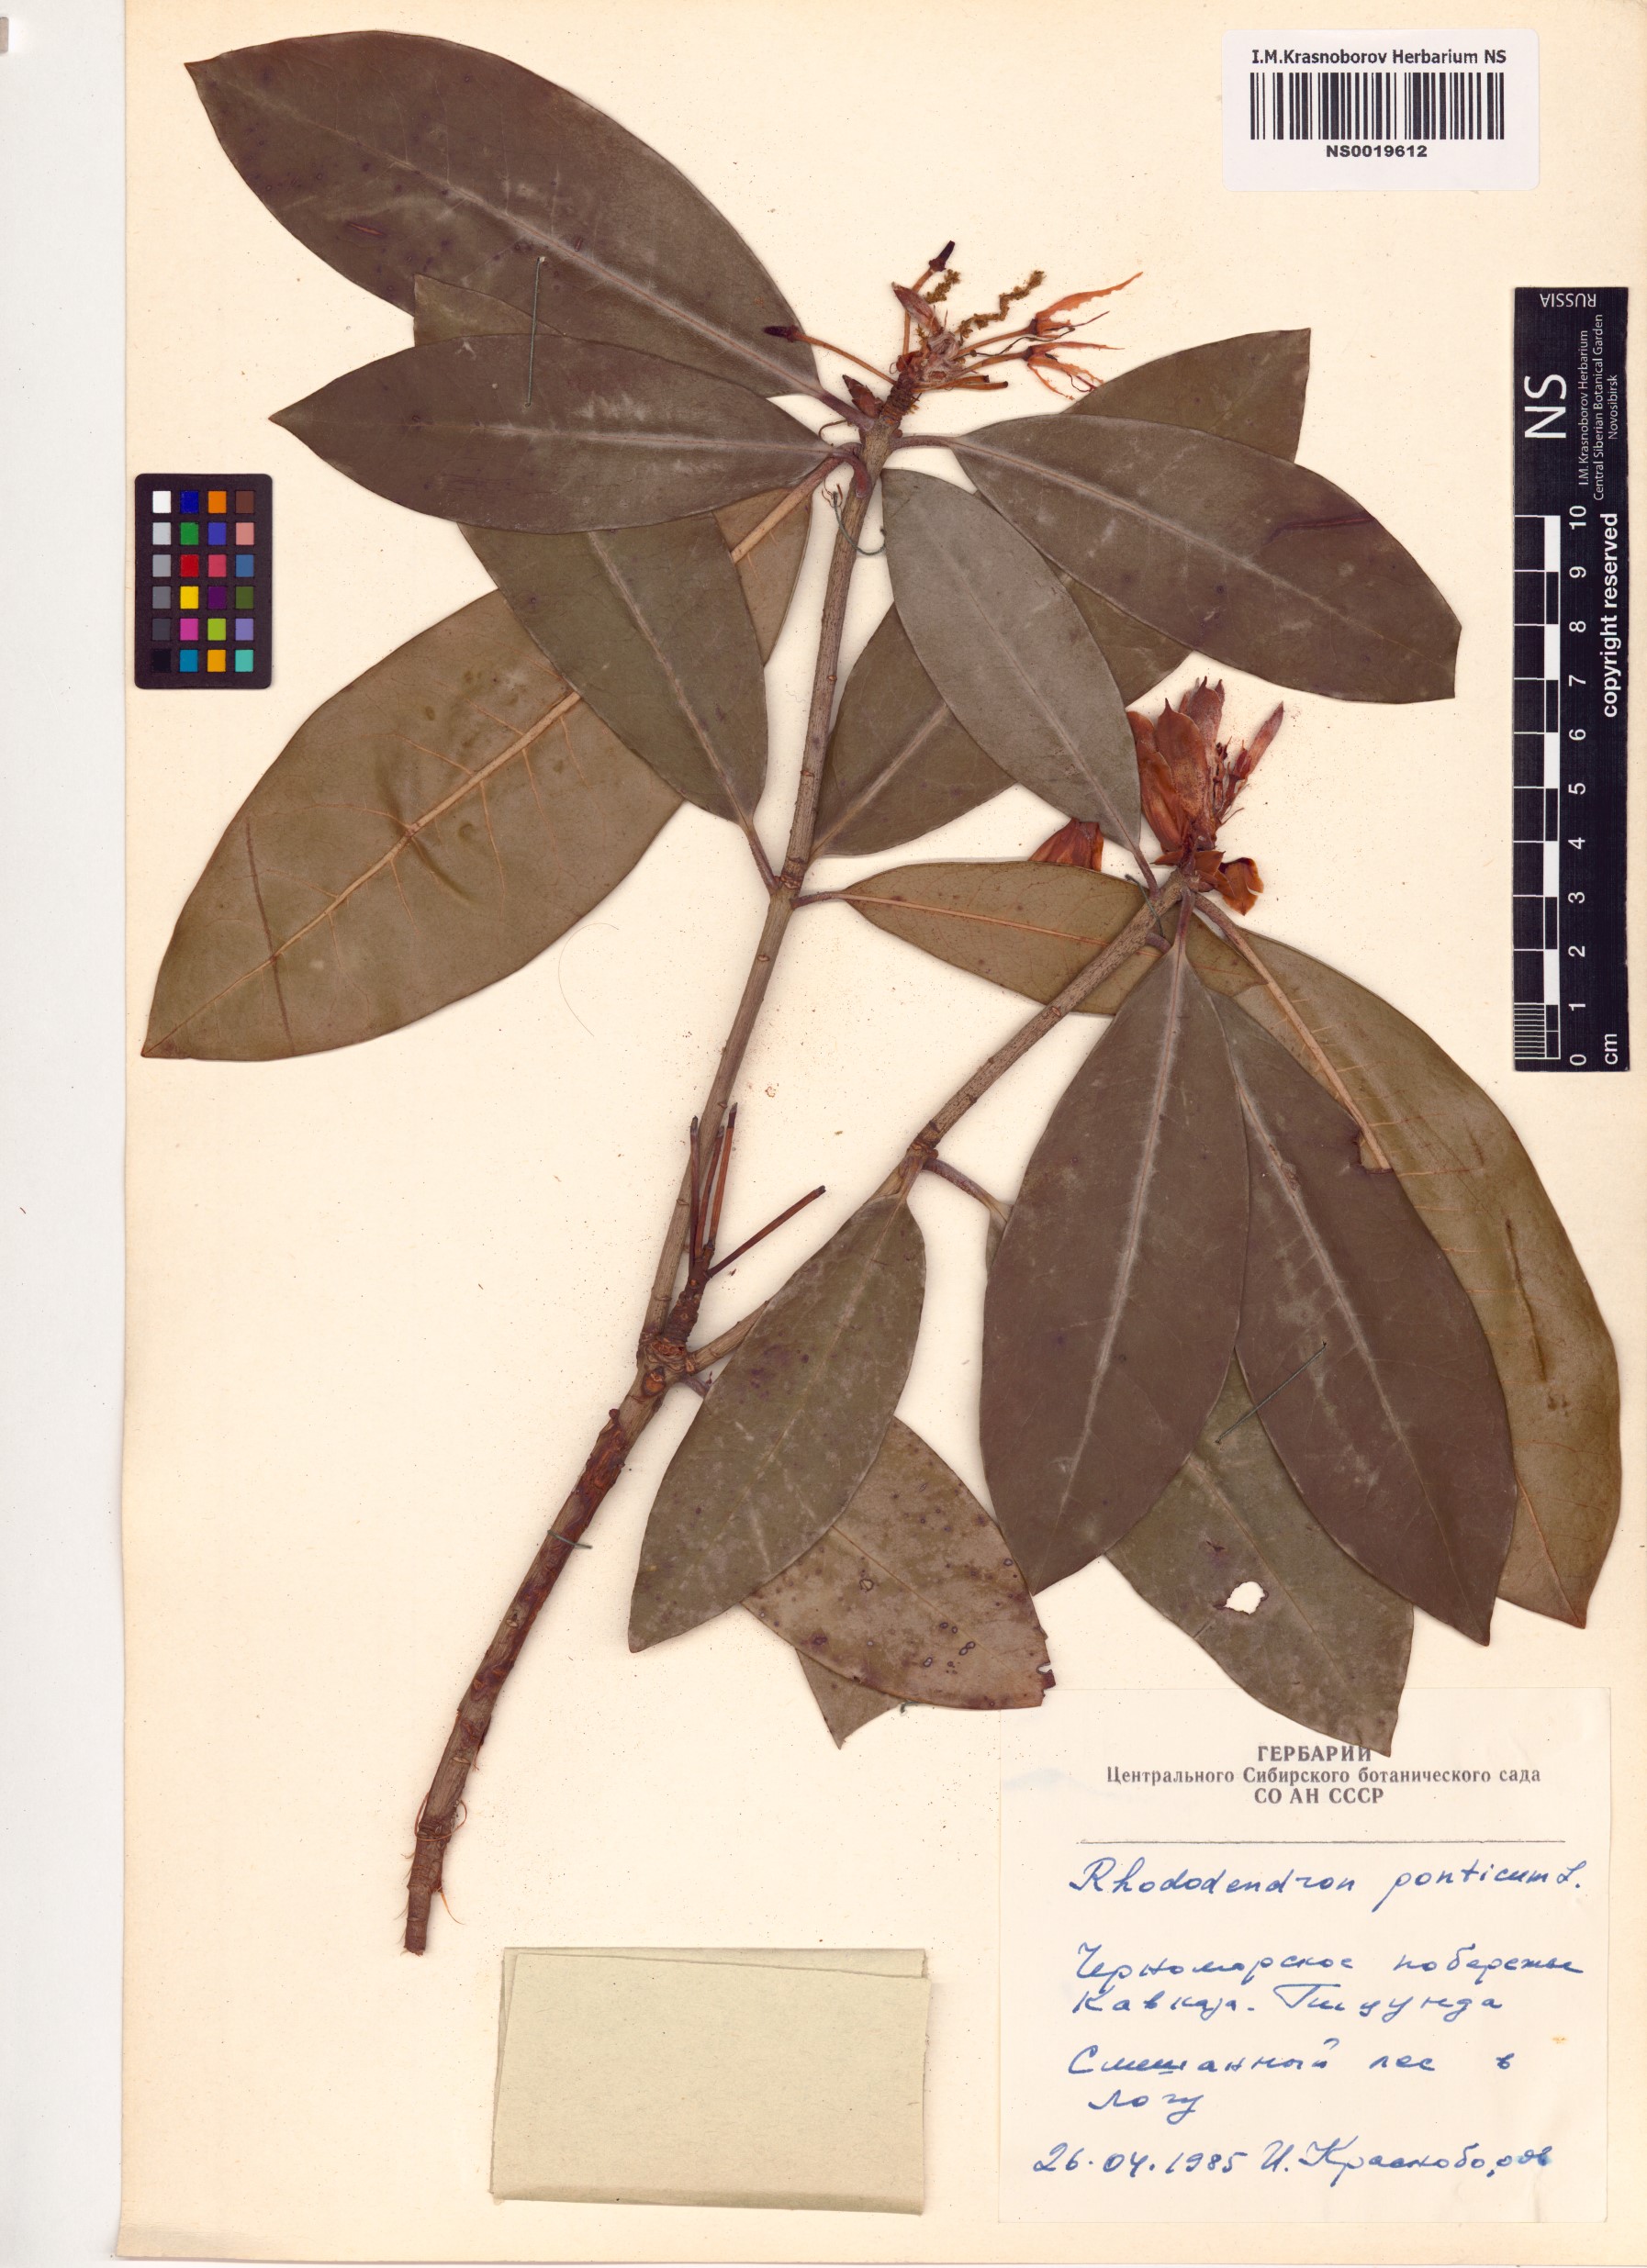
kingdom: Plantae
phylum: Tracheophyta
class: Magnoliopsida
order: Ericales
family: Ericaceae
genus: Rhododendron
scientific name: Rhododendron ponticum
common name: Rhododendron
